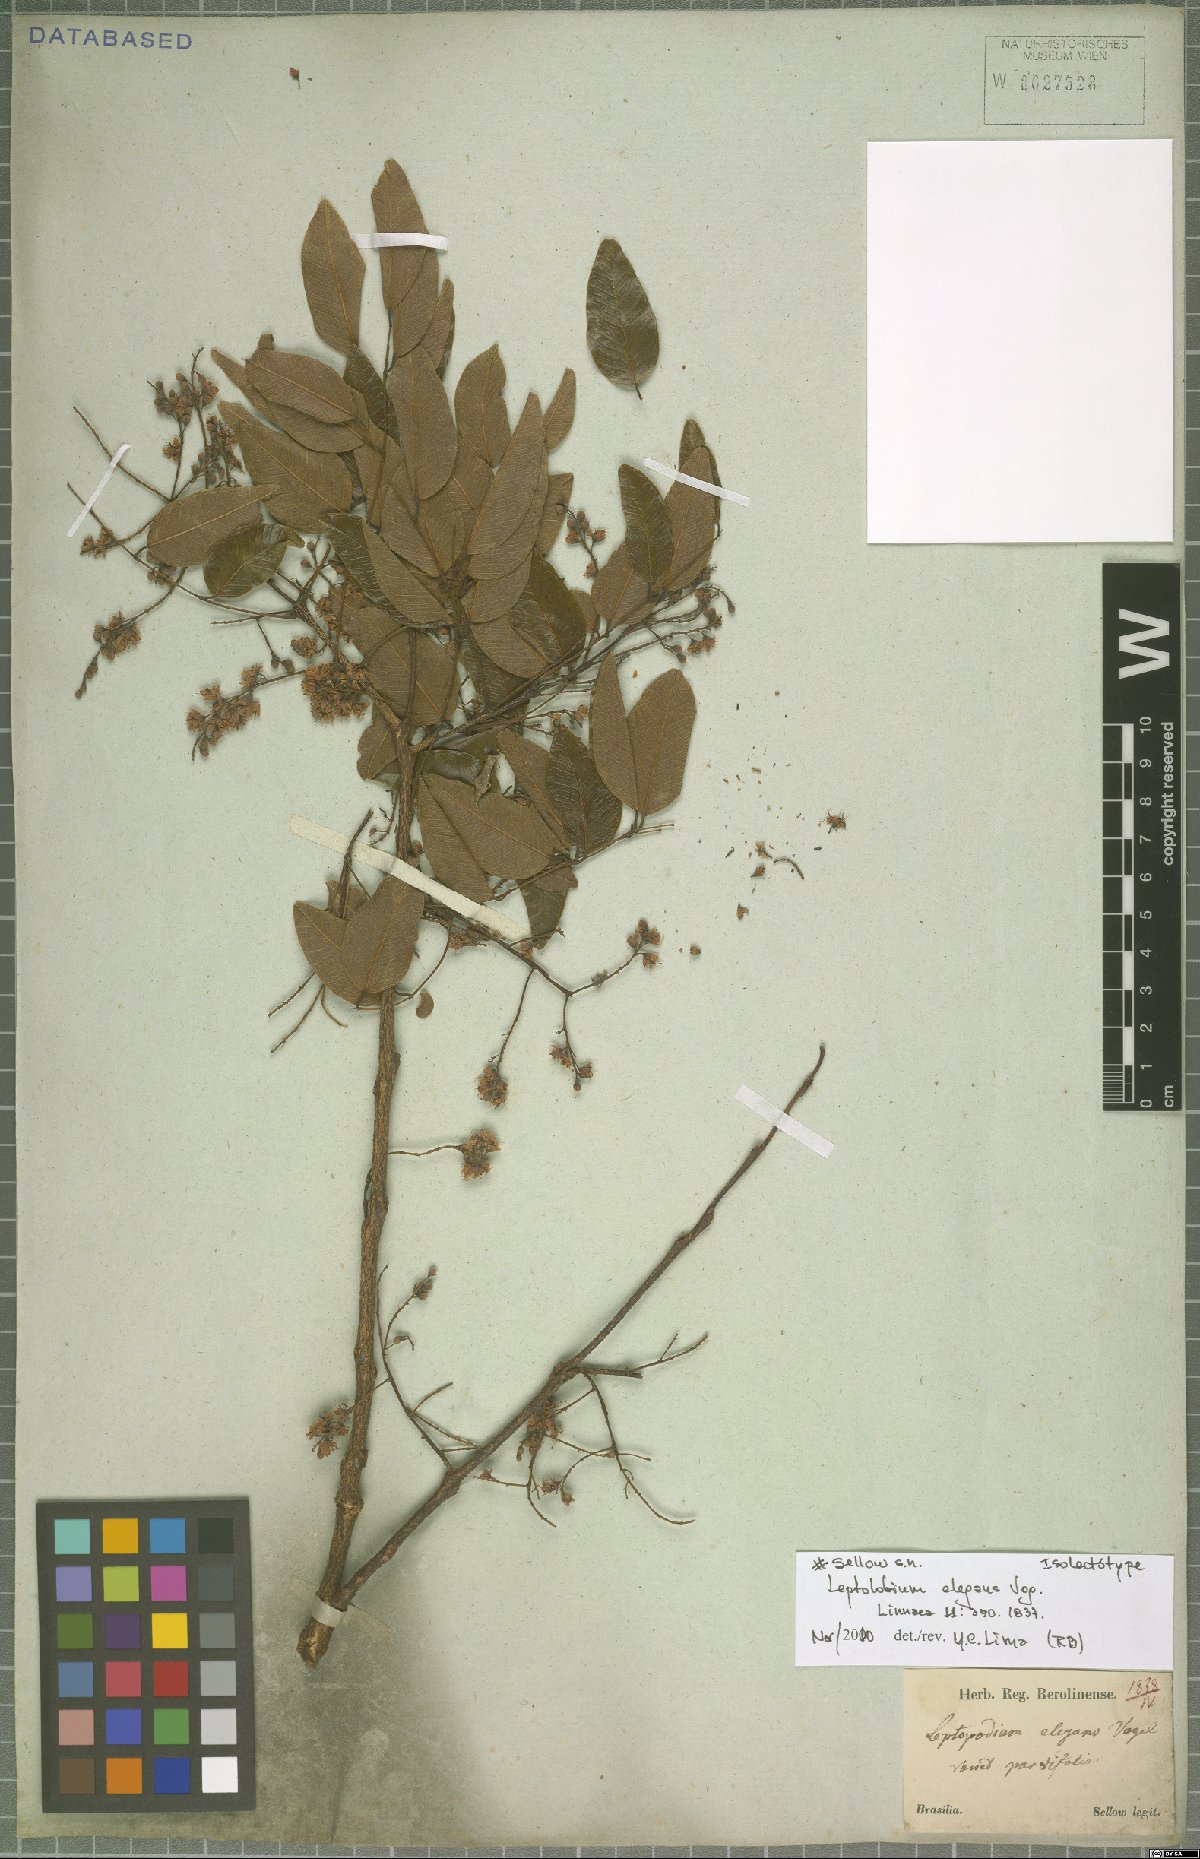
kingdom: Plantae
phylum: Tracheophyta
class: Magnoliopsida
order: Fabales
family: Fabaceae
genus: Leptolobium
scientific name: Leptolobium elegans
